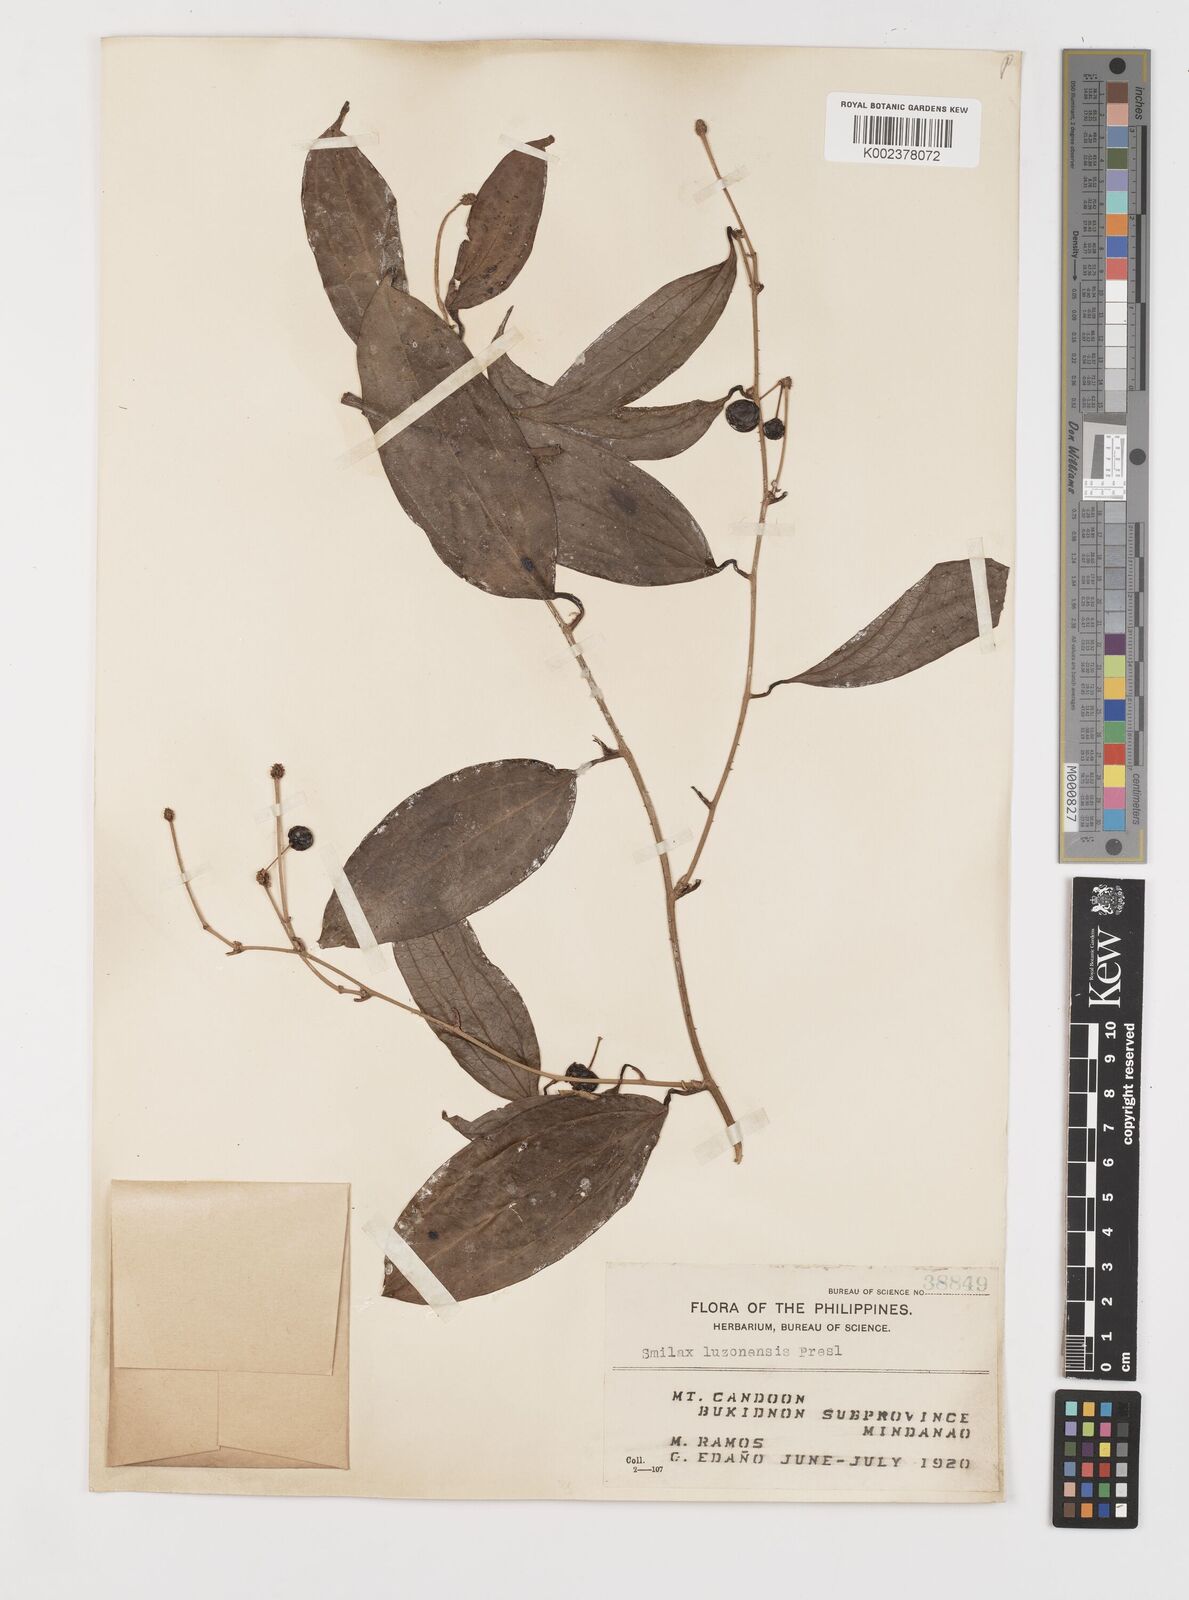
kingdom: Plantae
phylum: Tracheophyta
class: Liliopsida
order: Liliales
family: Smilacaceae
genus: Smilax
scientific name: Smilax luzonensis
